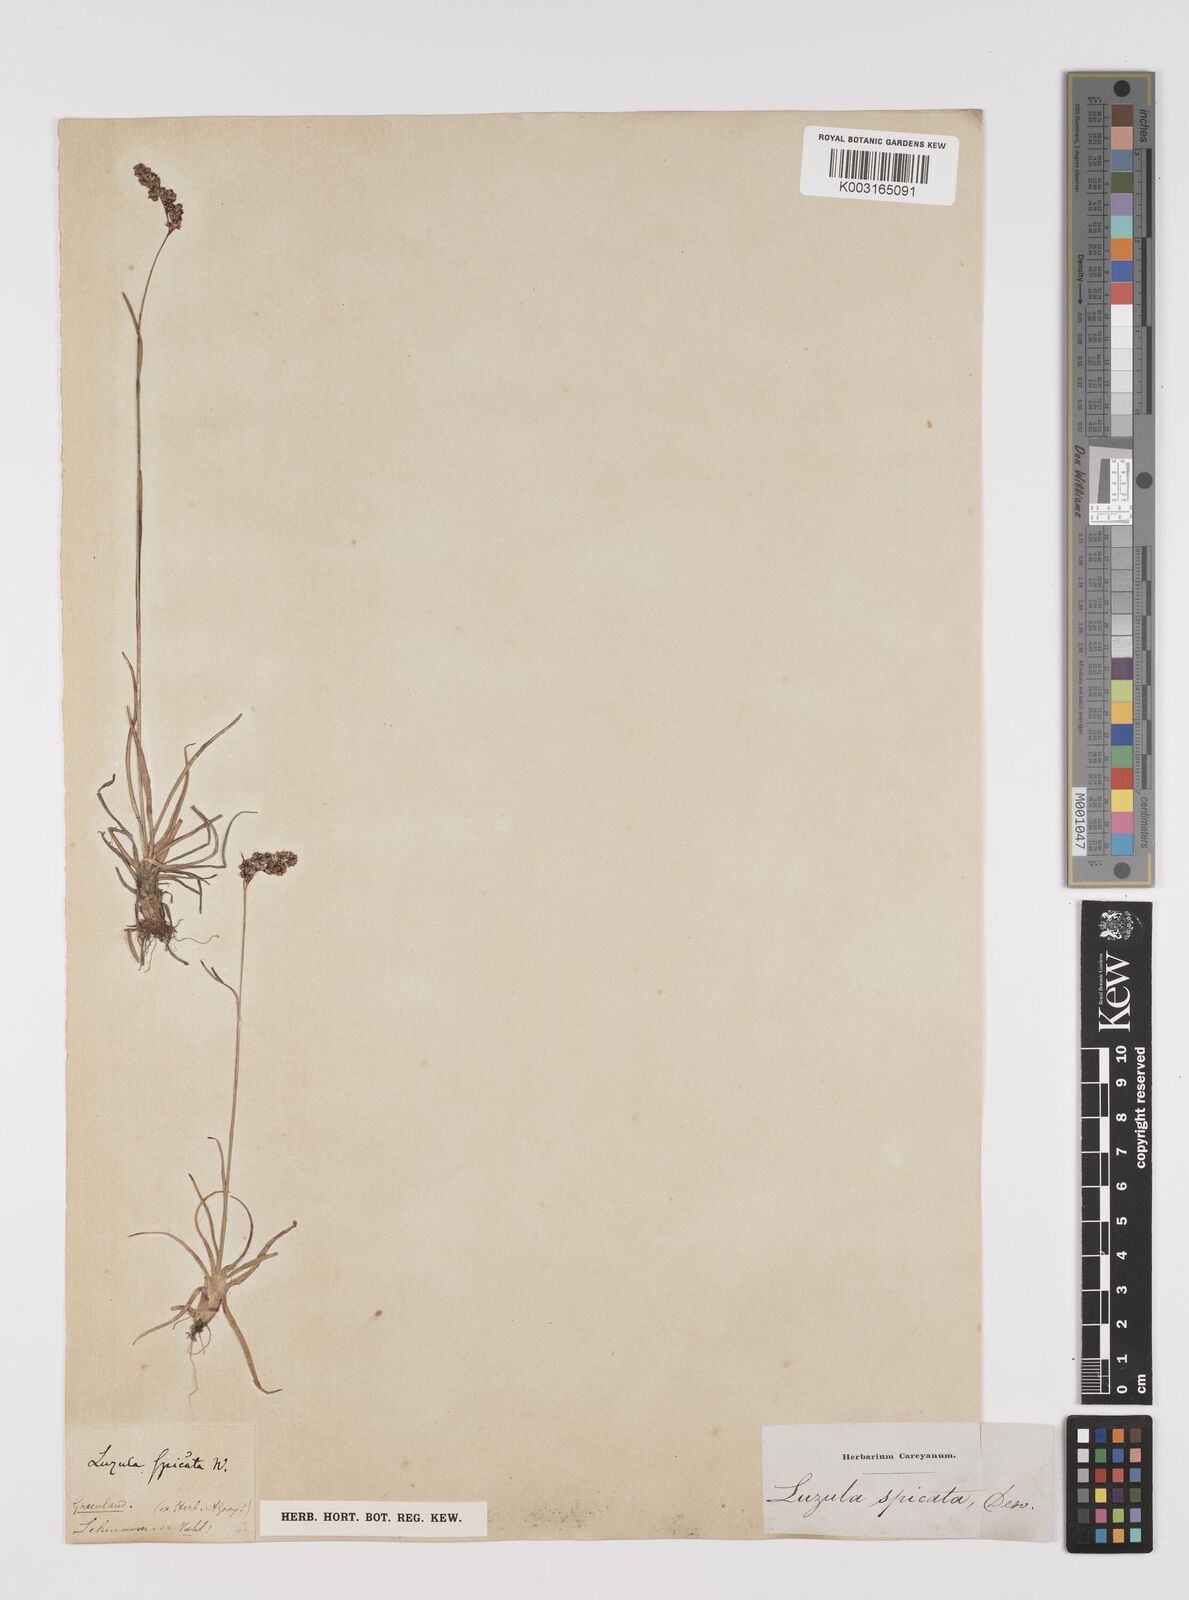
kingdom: Plantae
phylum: Tracheophyta
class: Liliopsida
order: Poales
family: Juncaceae
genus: Luzula
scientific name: Luzula spicata
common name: Spiked wood-rush
